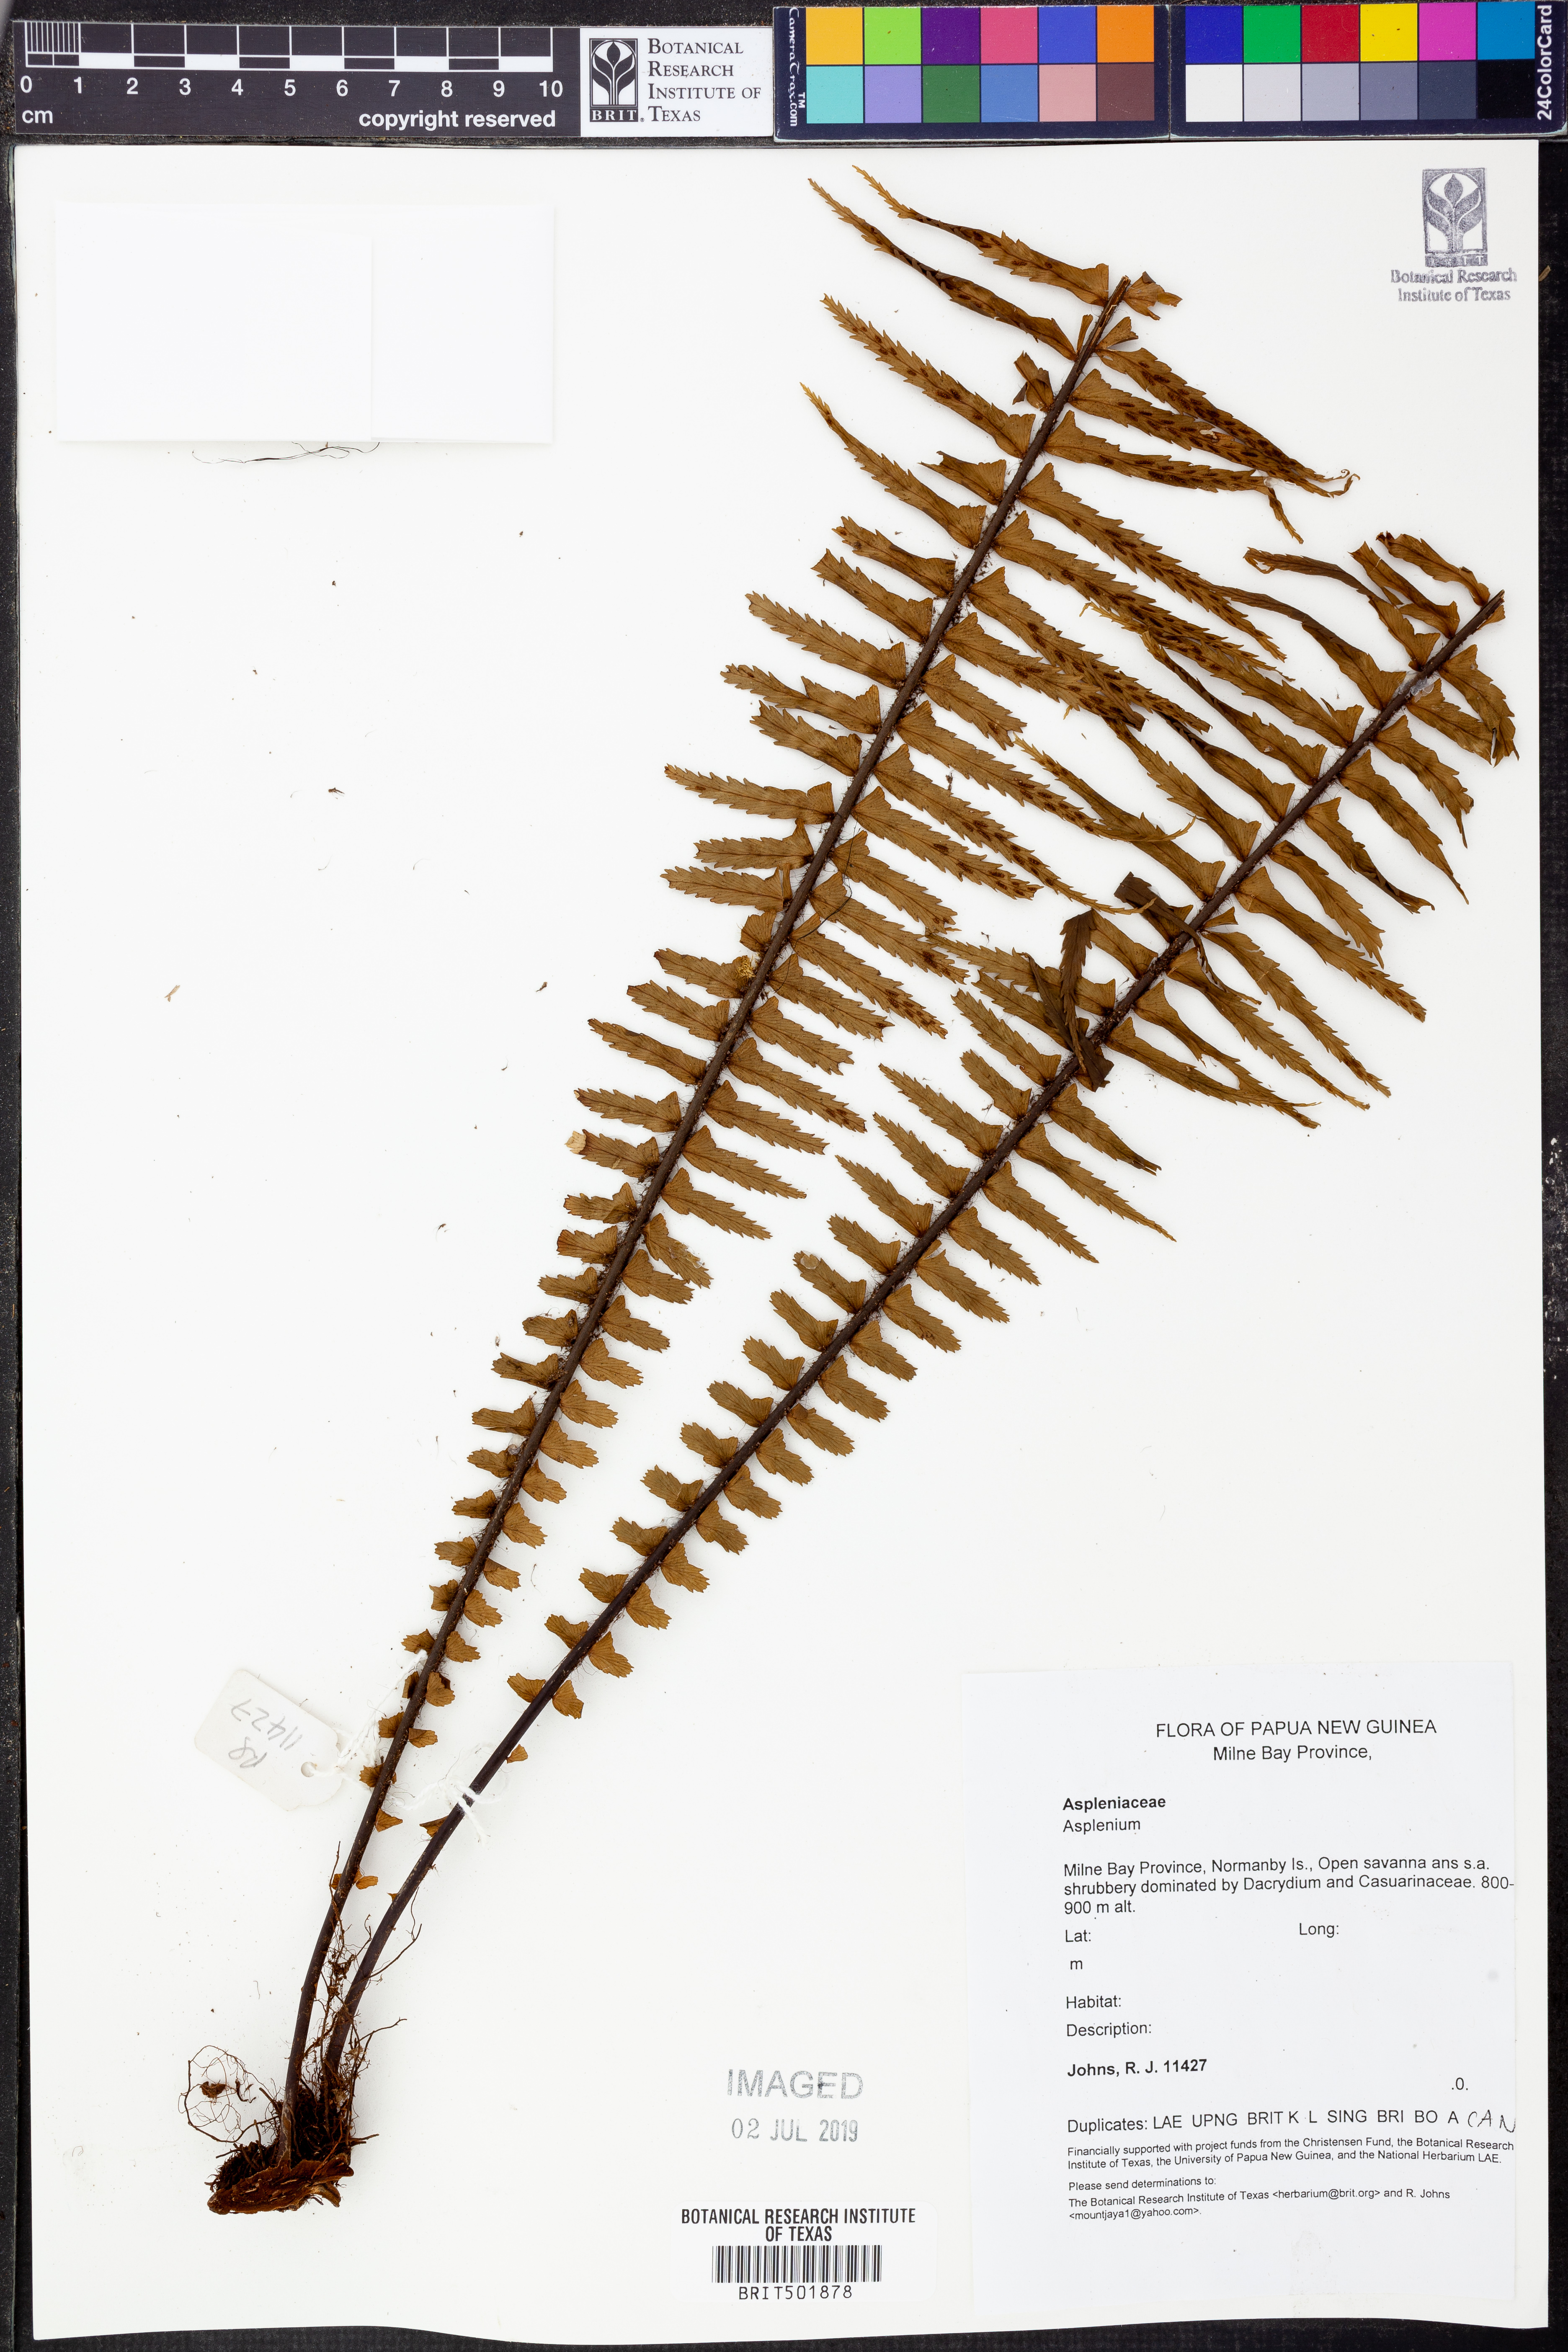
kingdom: Plantae
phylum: Tracheophyta
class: Polypodiopsida
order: Polypodiales
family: Aspleniaceae
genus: Asplenium
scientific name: Asplenium
